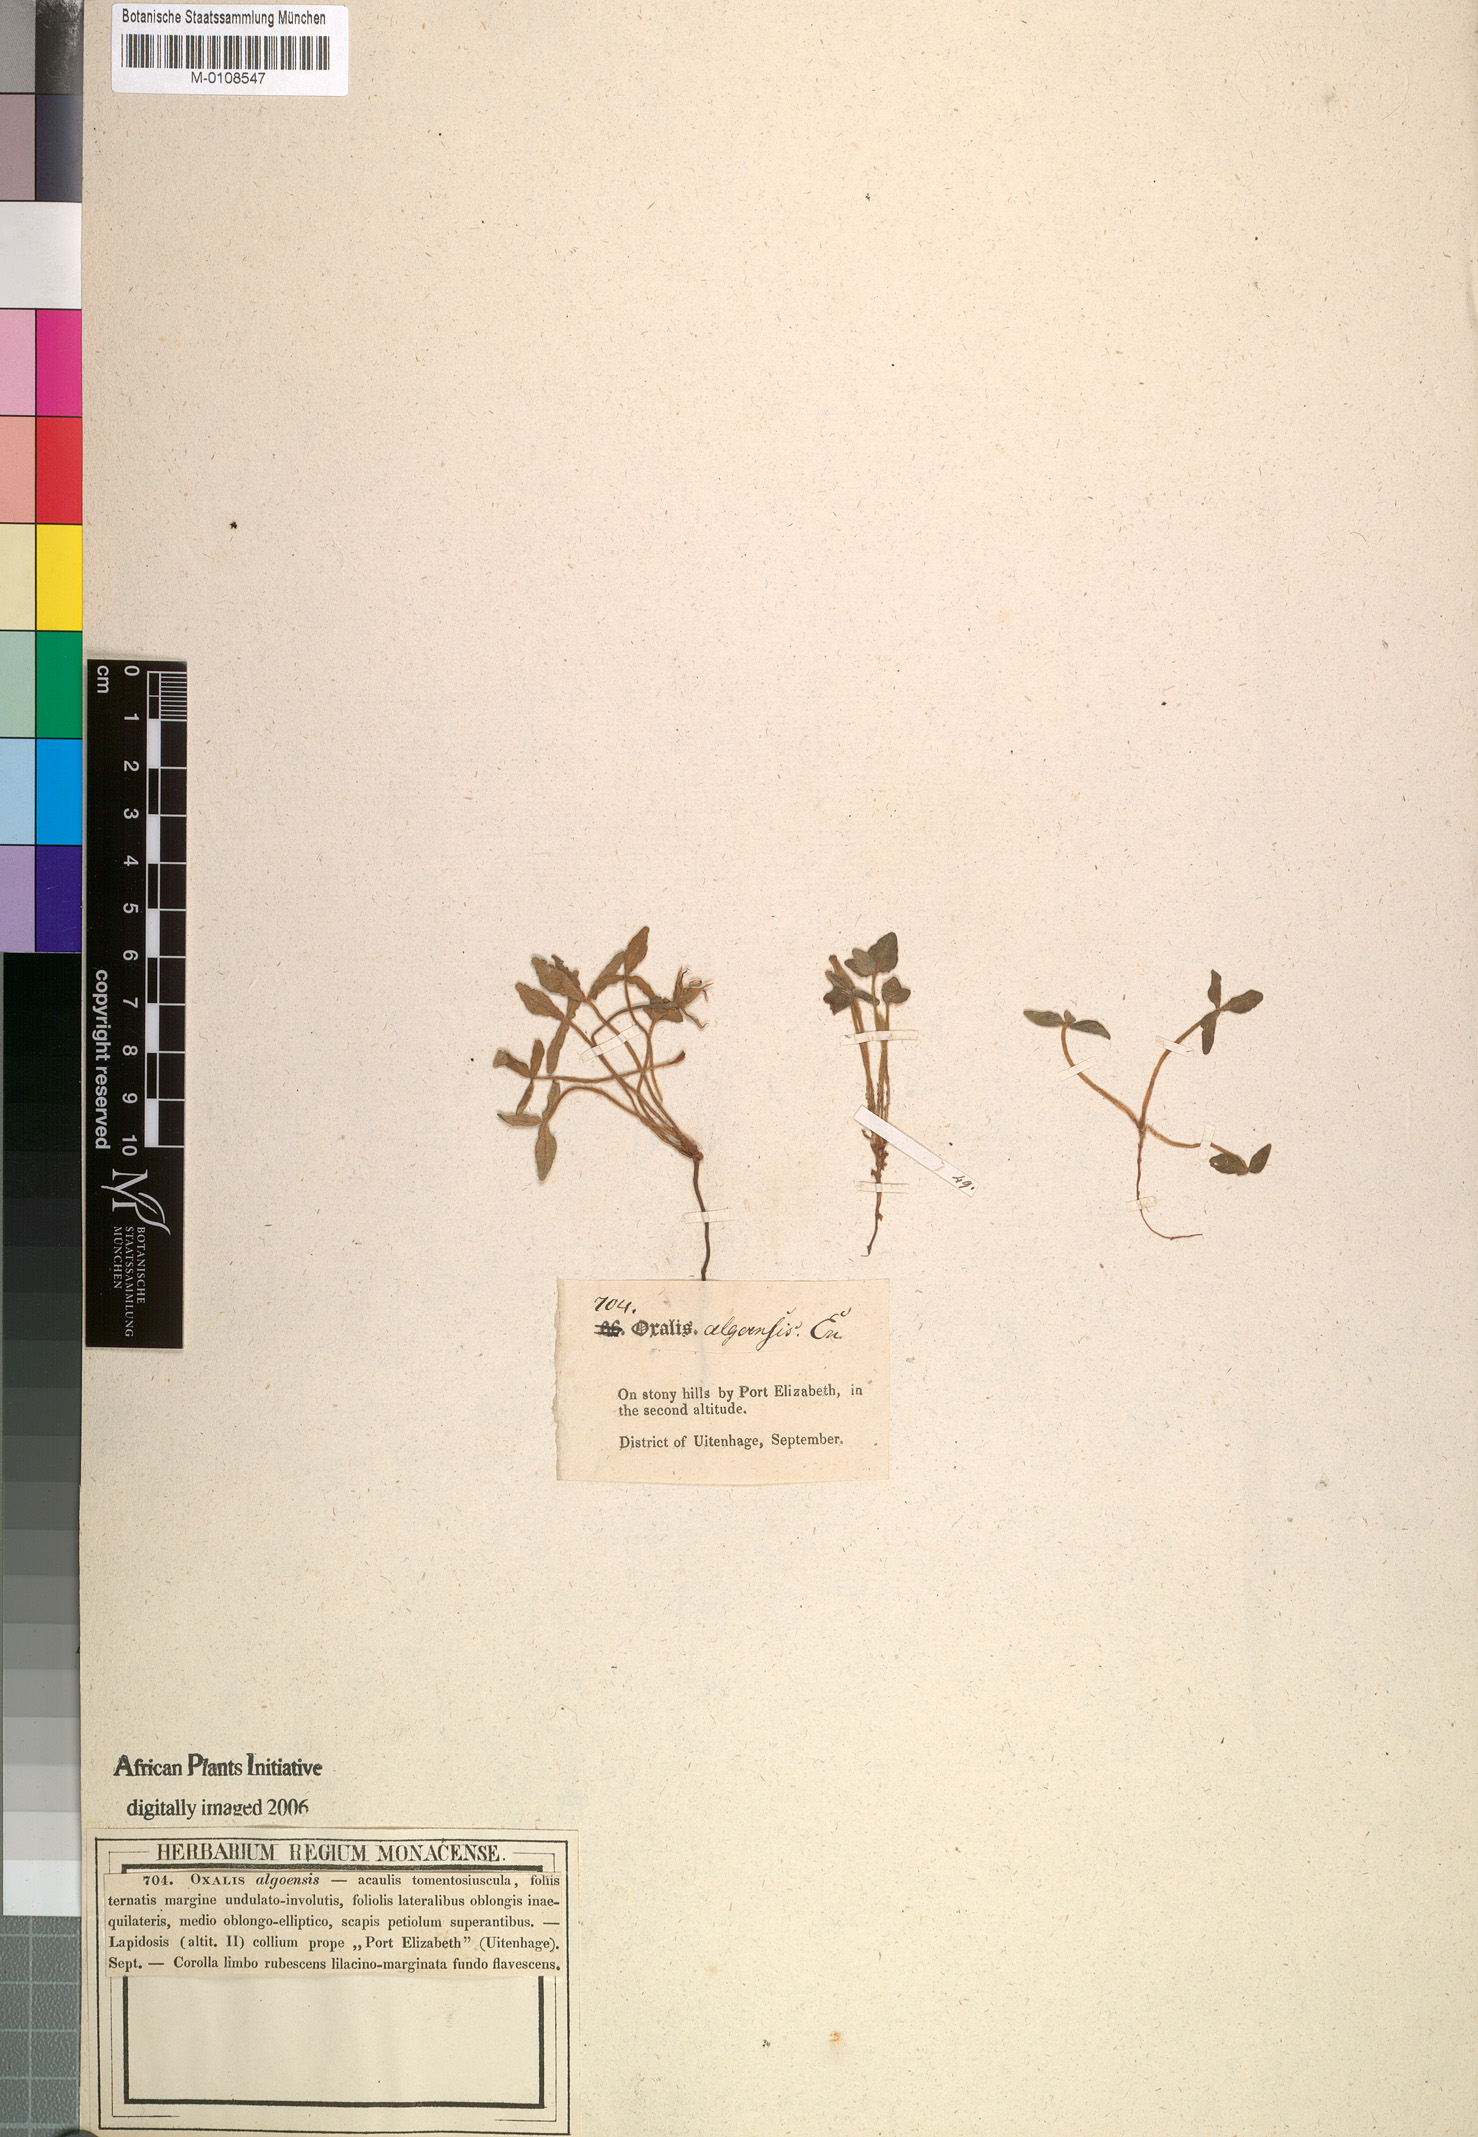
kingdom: Plantae
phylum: Tracheophyta
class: Magnoliopsida
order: Oxalidales
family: Oxalidaceae
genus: Oxalis
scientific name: Oxalis algoensis
